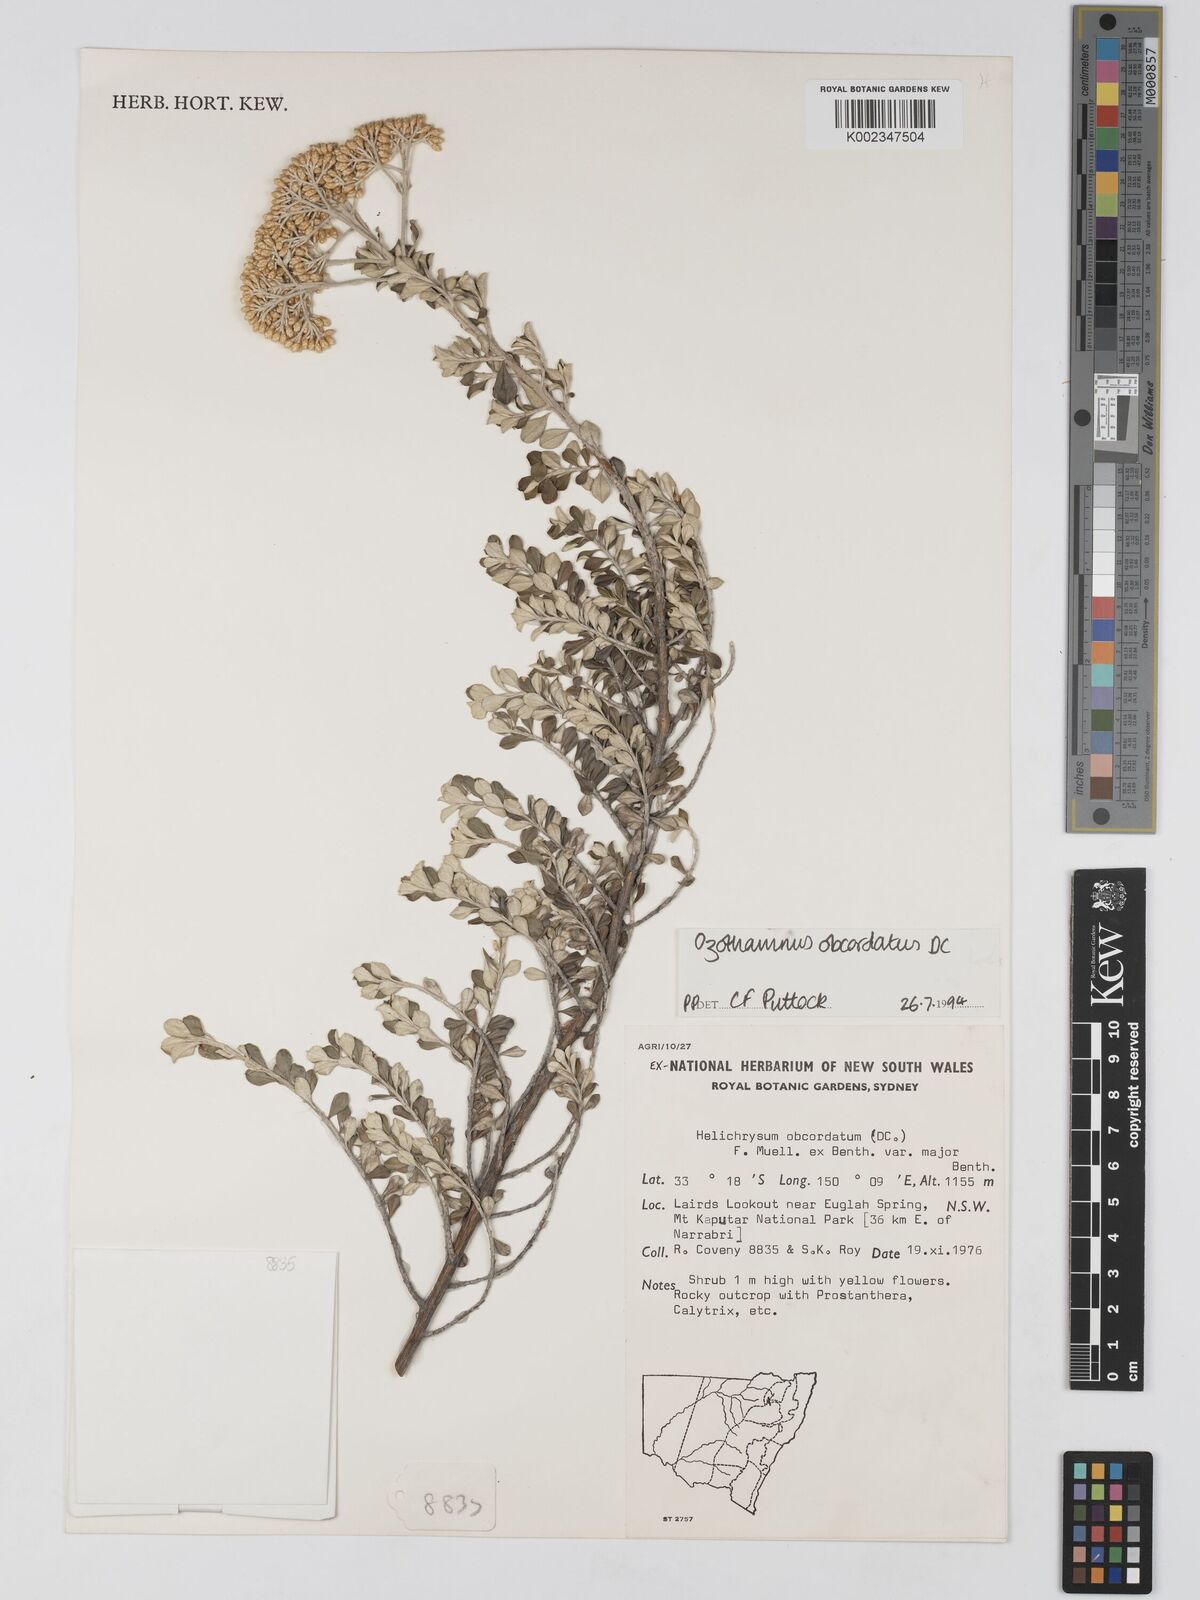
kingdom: Plantae
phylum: Tracheophyta
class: Magnoliopsida
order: Asterales
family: Asteraceae
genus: Ozothamnus
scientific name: Ozothamnus
